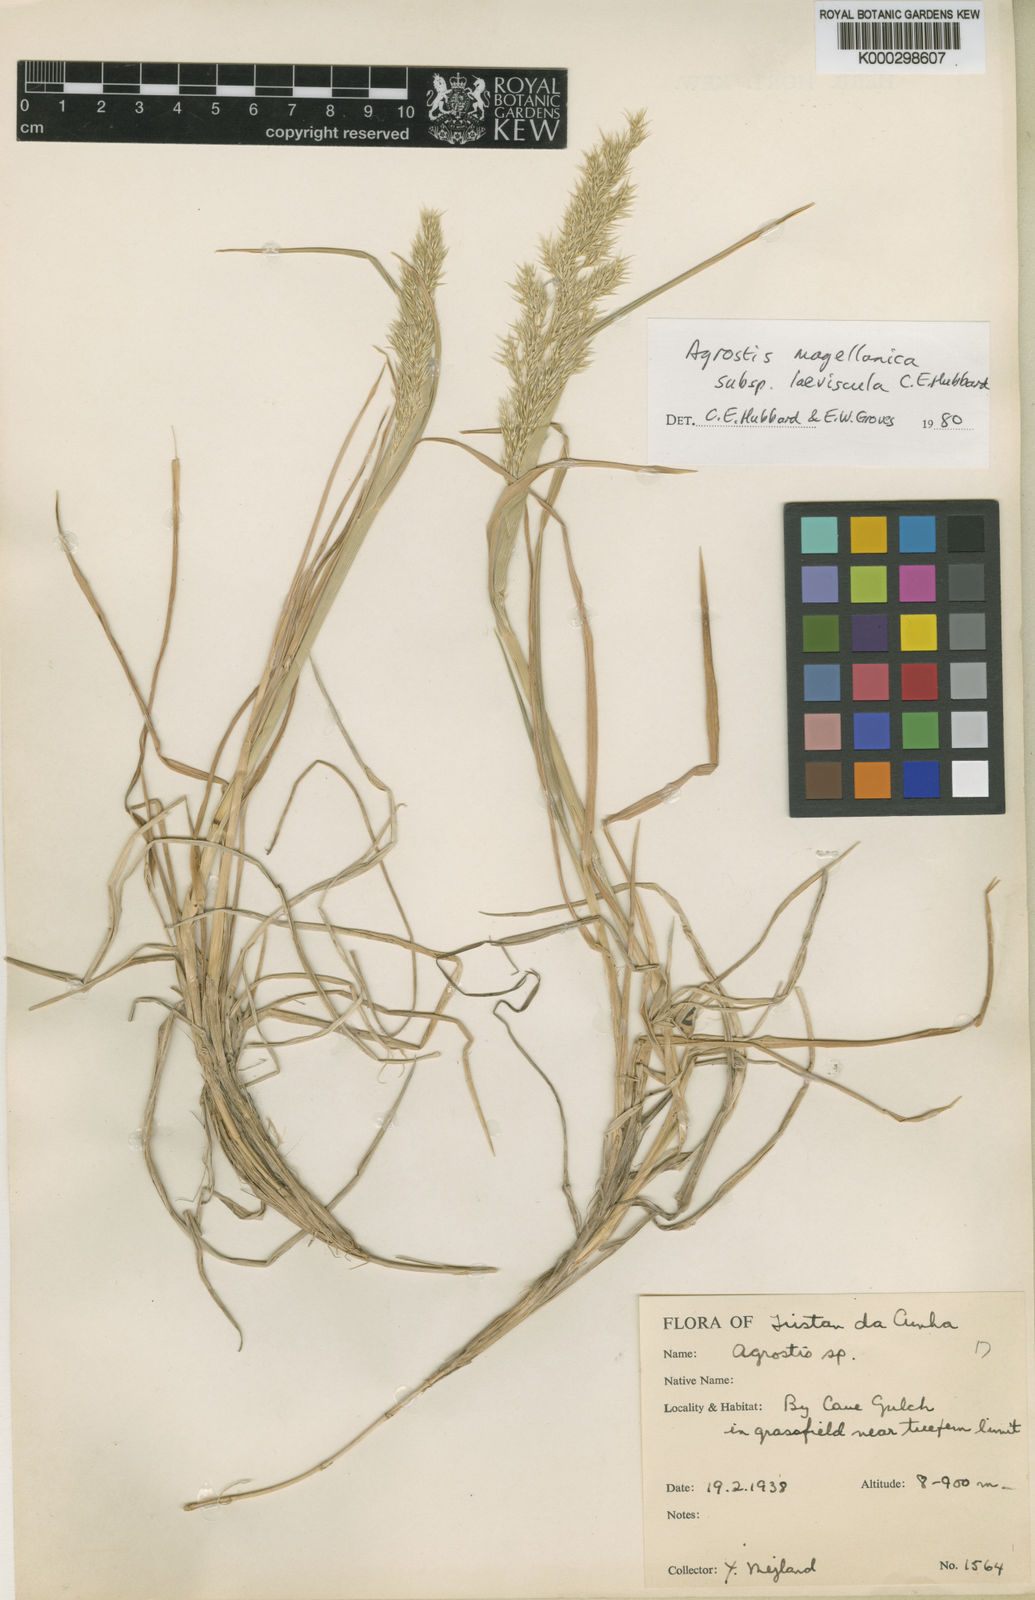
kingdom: Plantae
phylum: Tracheophyta
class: Liliopsida
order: Poales
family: Poaceae
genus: Polypogon
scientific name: Polypogon magellanicus
